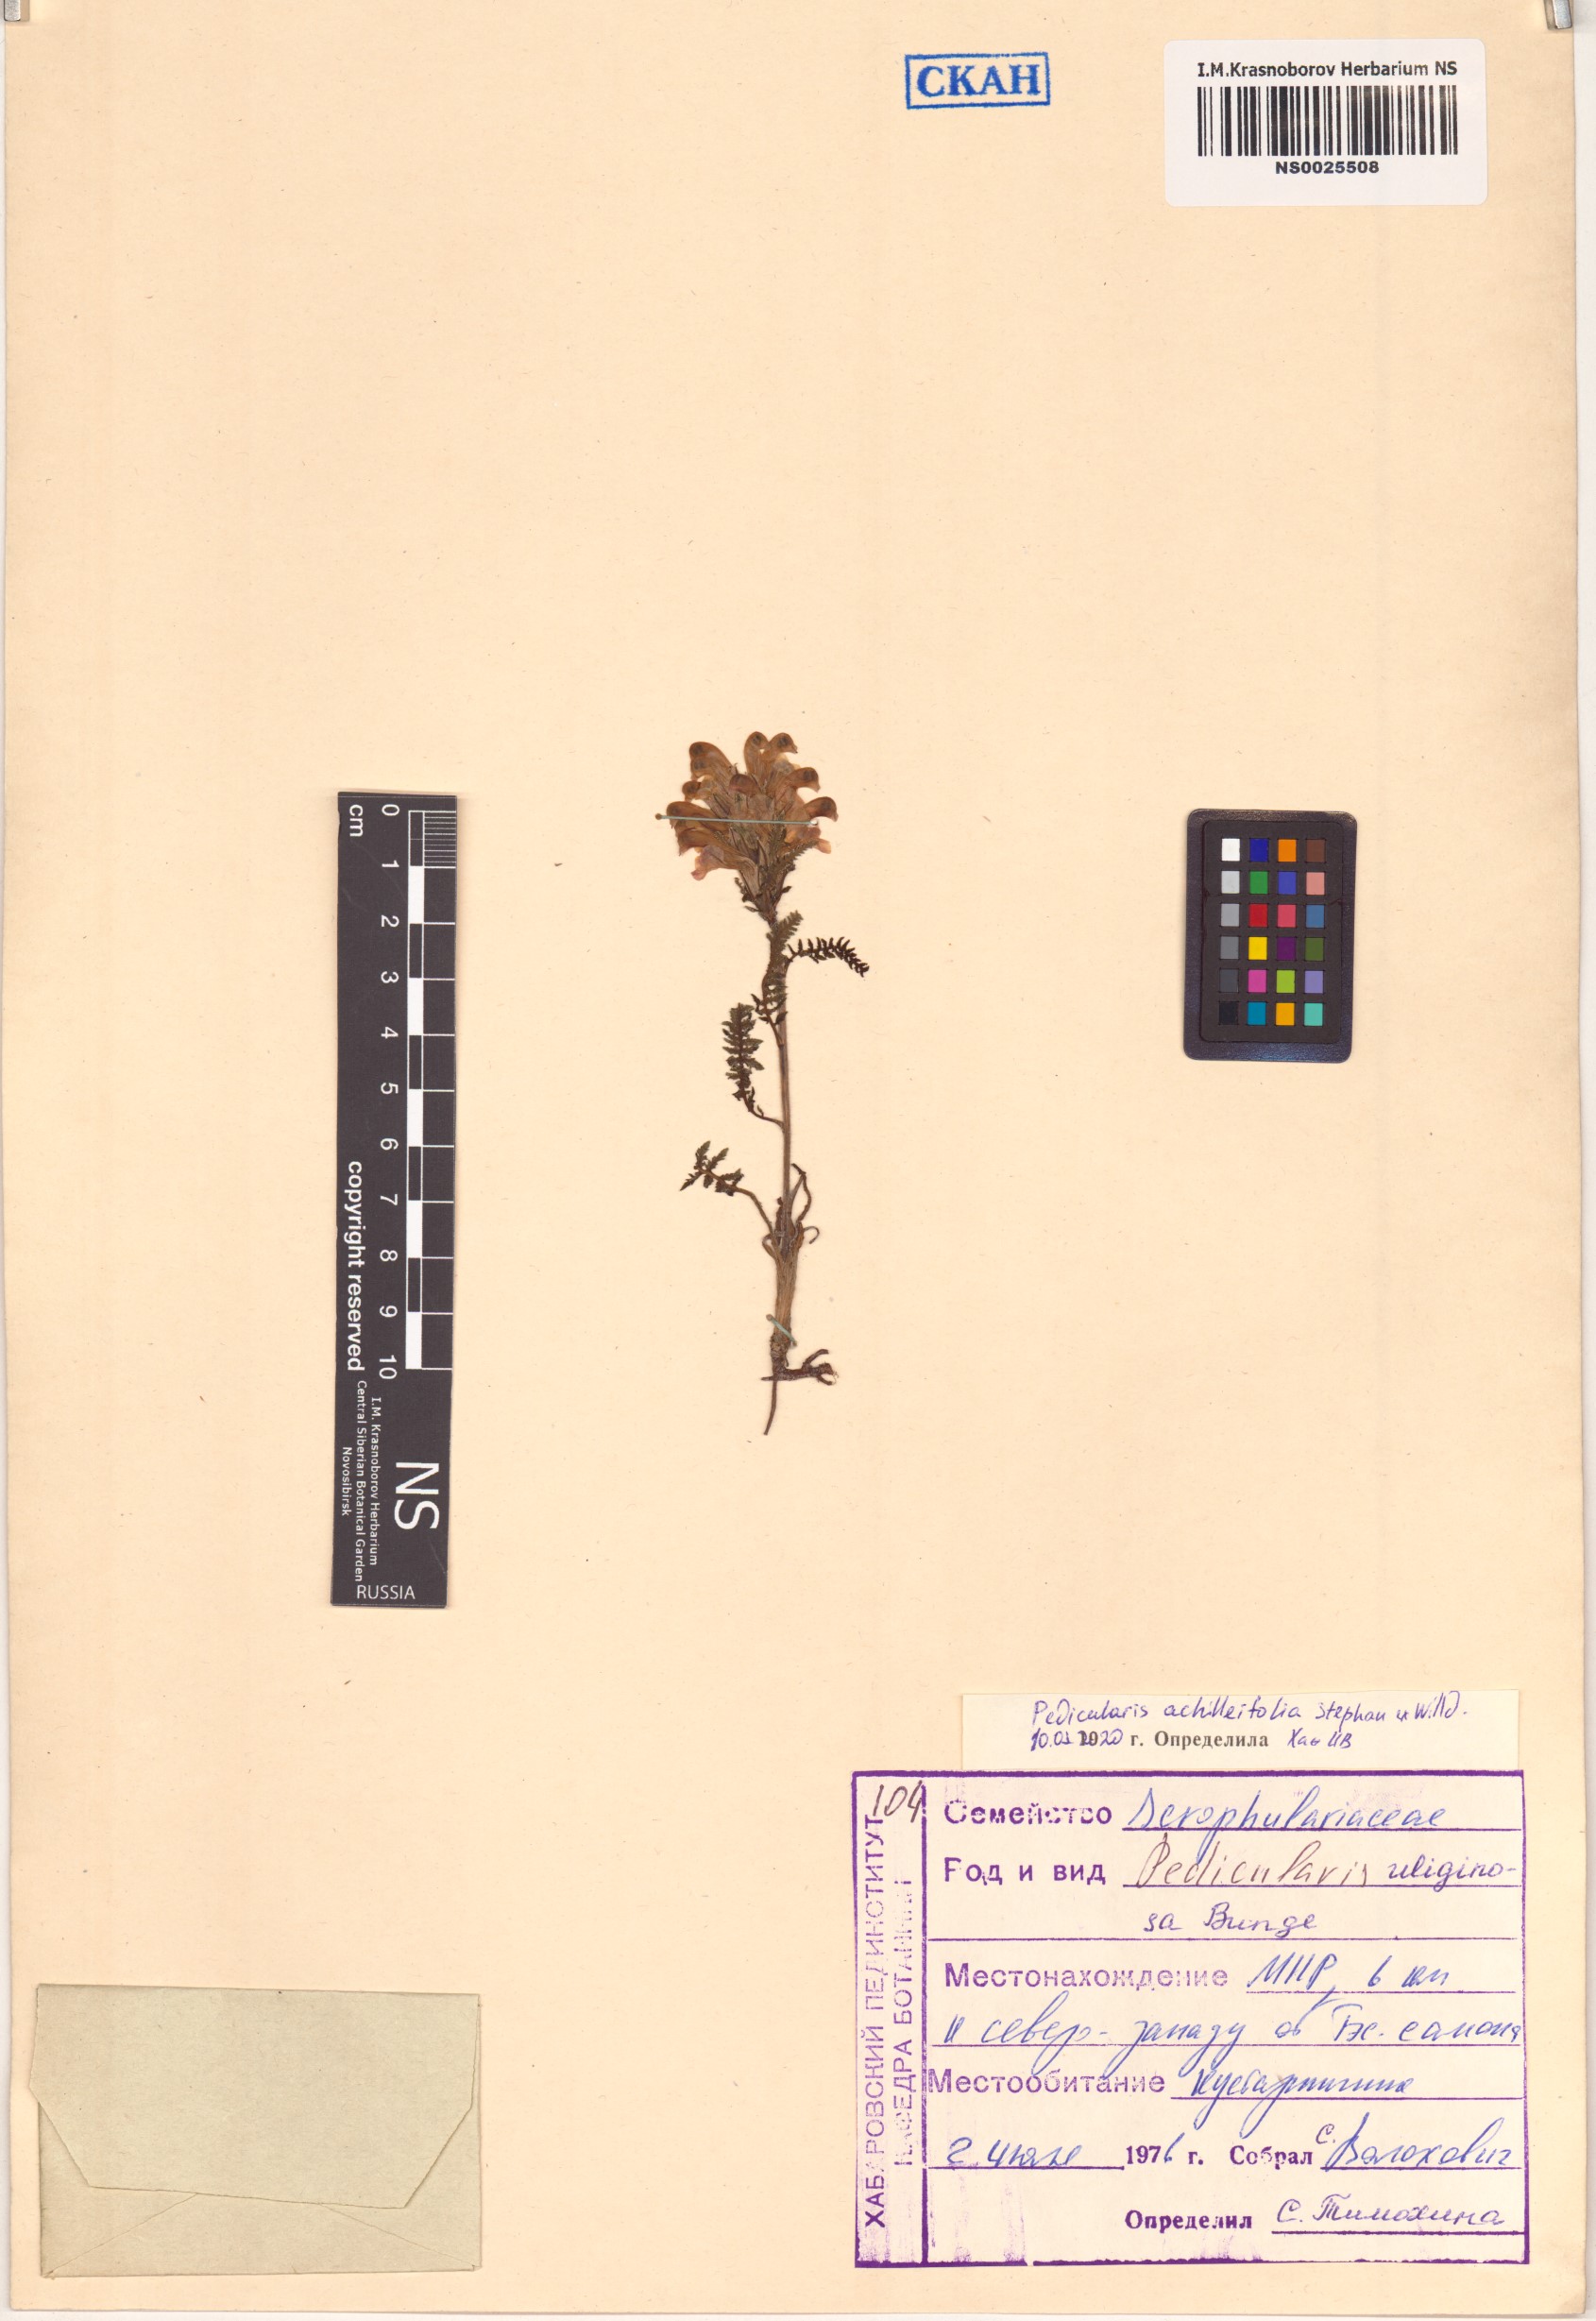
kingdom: Plantae
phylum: Tracheophyta
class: Magnoliopsida
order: Lamiales
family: Orobanchaceae
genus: Pedicularis
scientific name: Pedicularis achilleifolia
